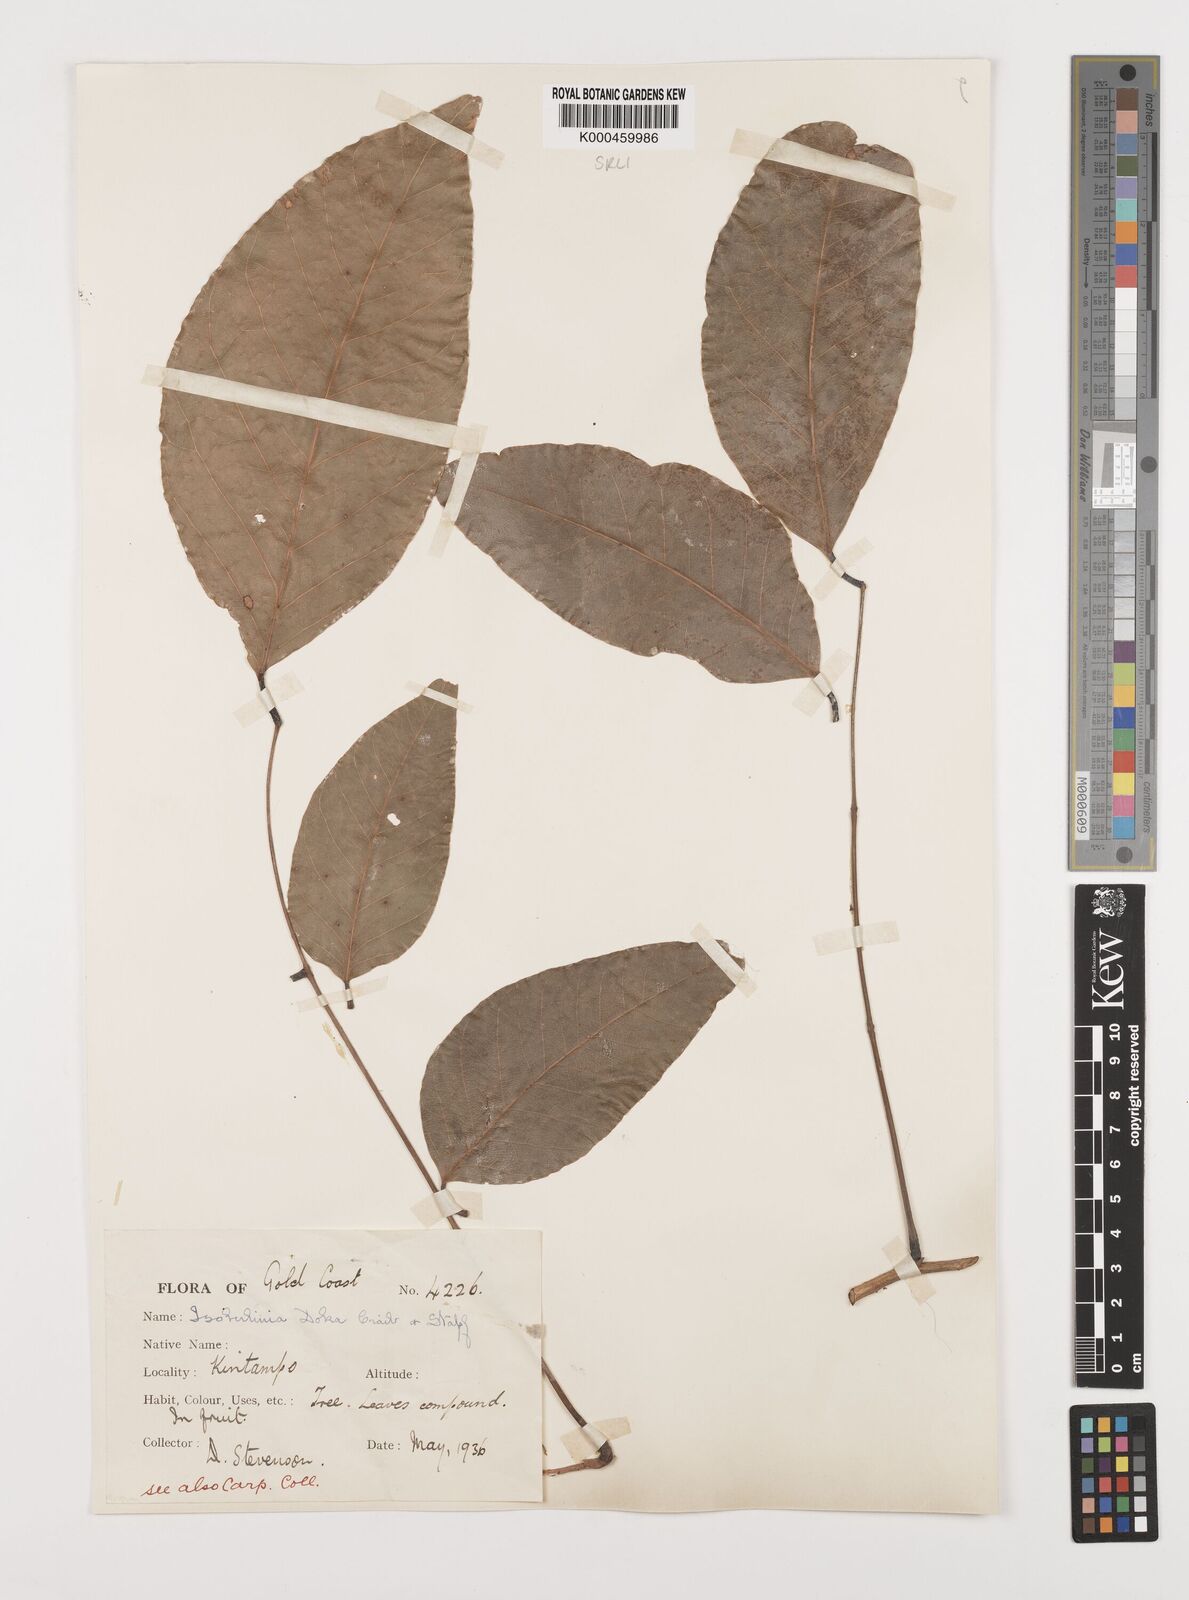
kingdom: Plantae
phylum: Tracheophyta
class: Magnoliopsida
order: Fabales
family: Fabaceae
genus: Isoberlinia
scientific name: Isoberlinia doka
